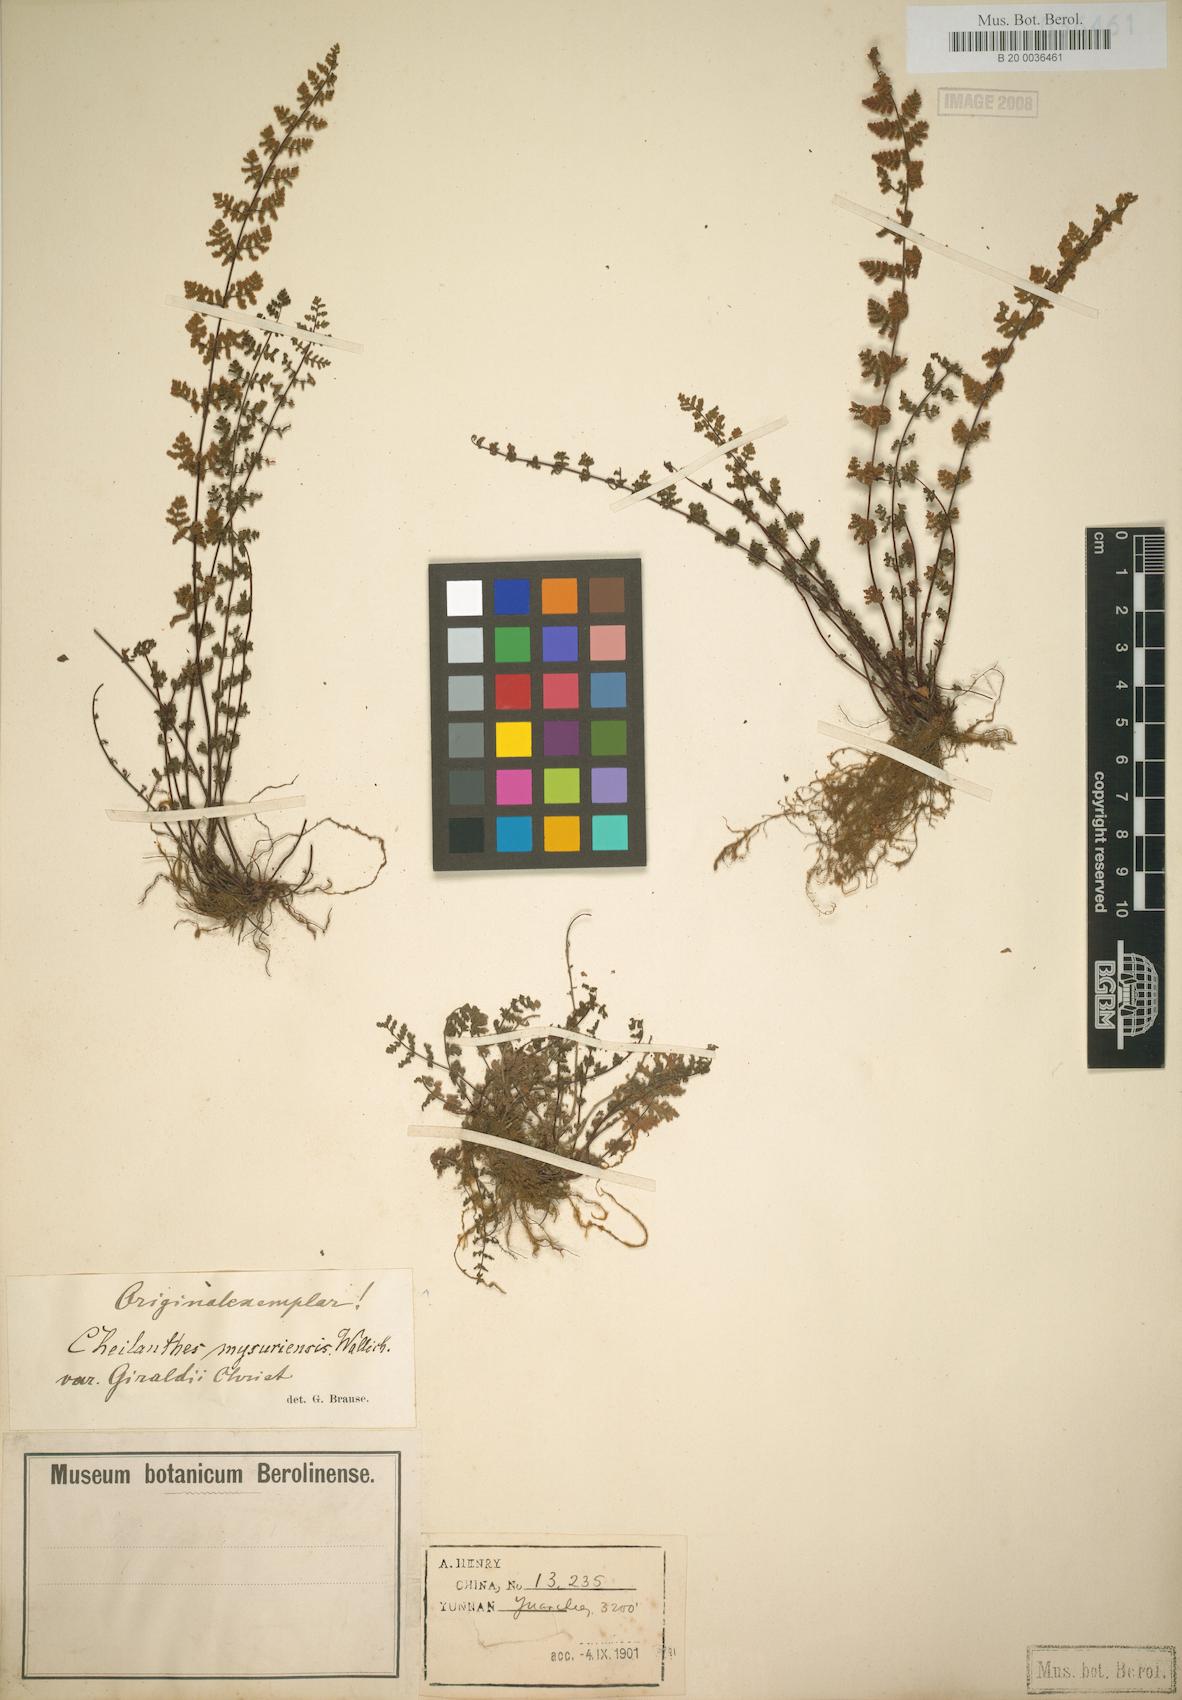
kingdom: Plantae
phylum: Tracheophyta
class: Polypodiopsida
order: Polypodiales
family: Pteridaceae
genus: Oeosporangium
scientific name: Oeosporangium chusanum
